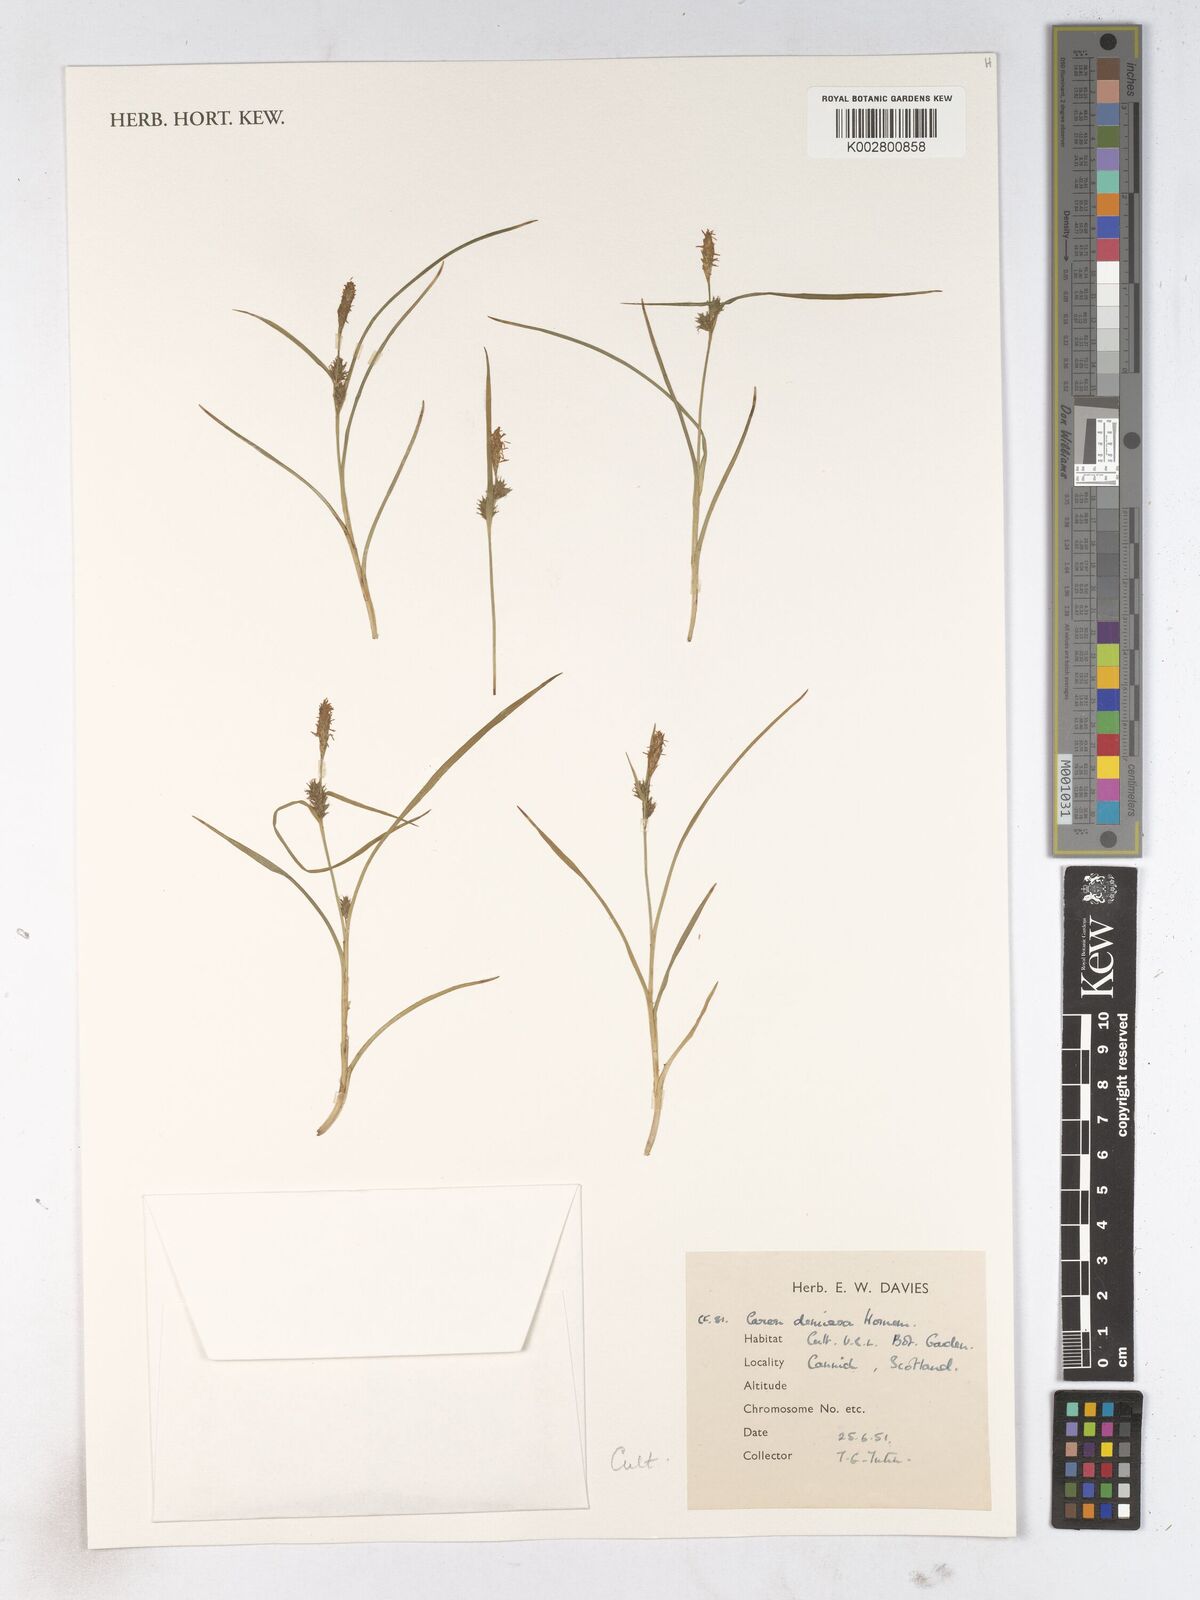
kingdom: Plantae
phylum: Tracheophyta
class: Liliopsida
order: Poales
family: Cyperaceae
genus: Carex
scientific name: Carex demissa
